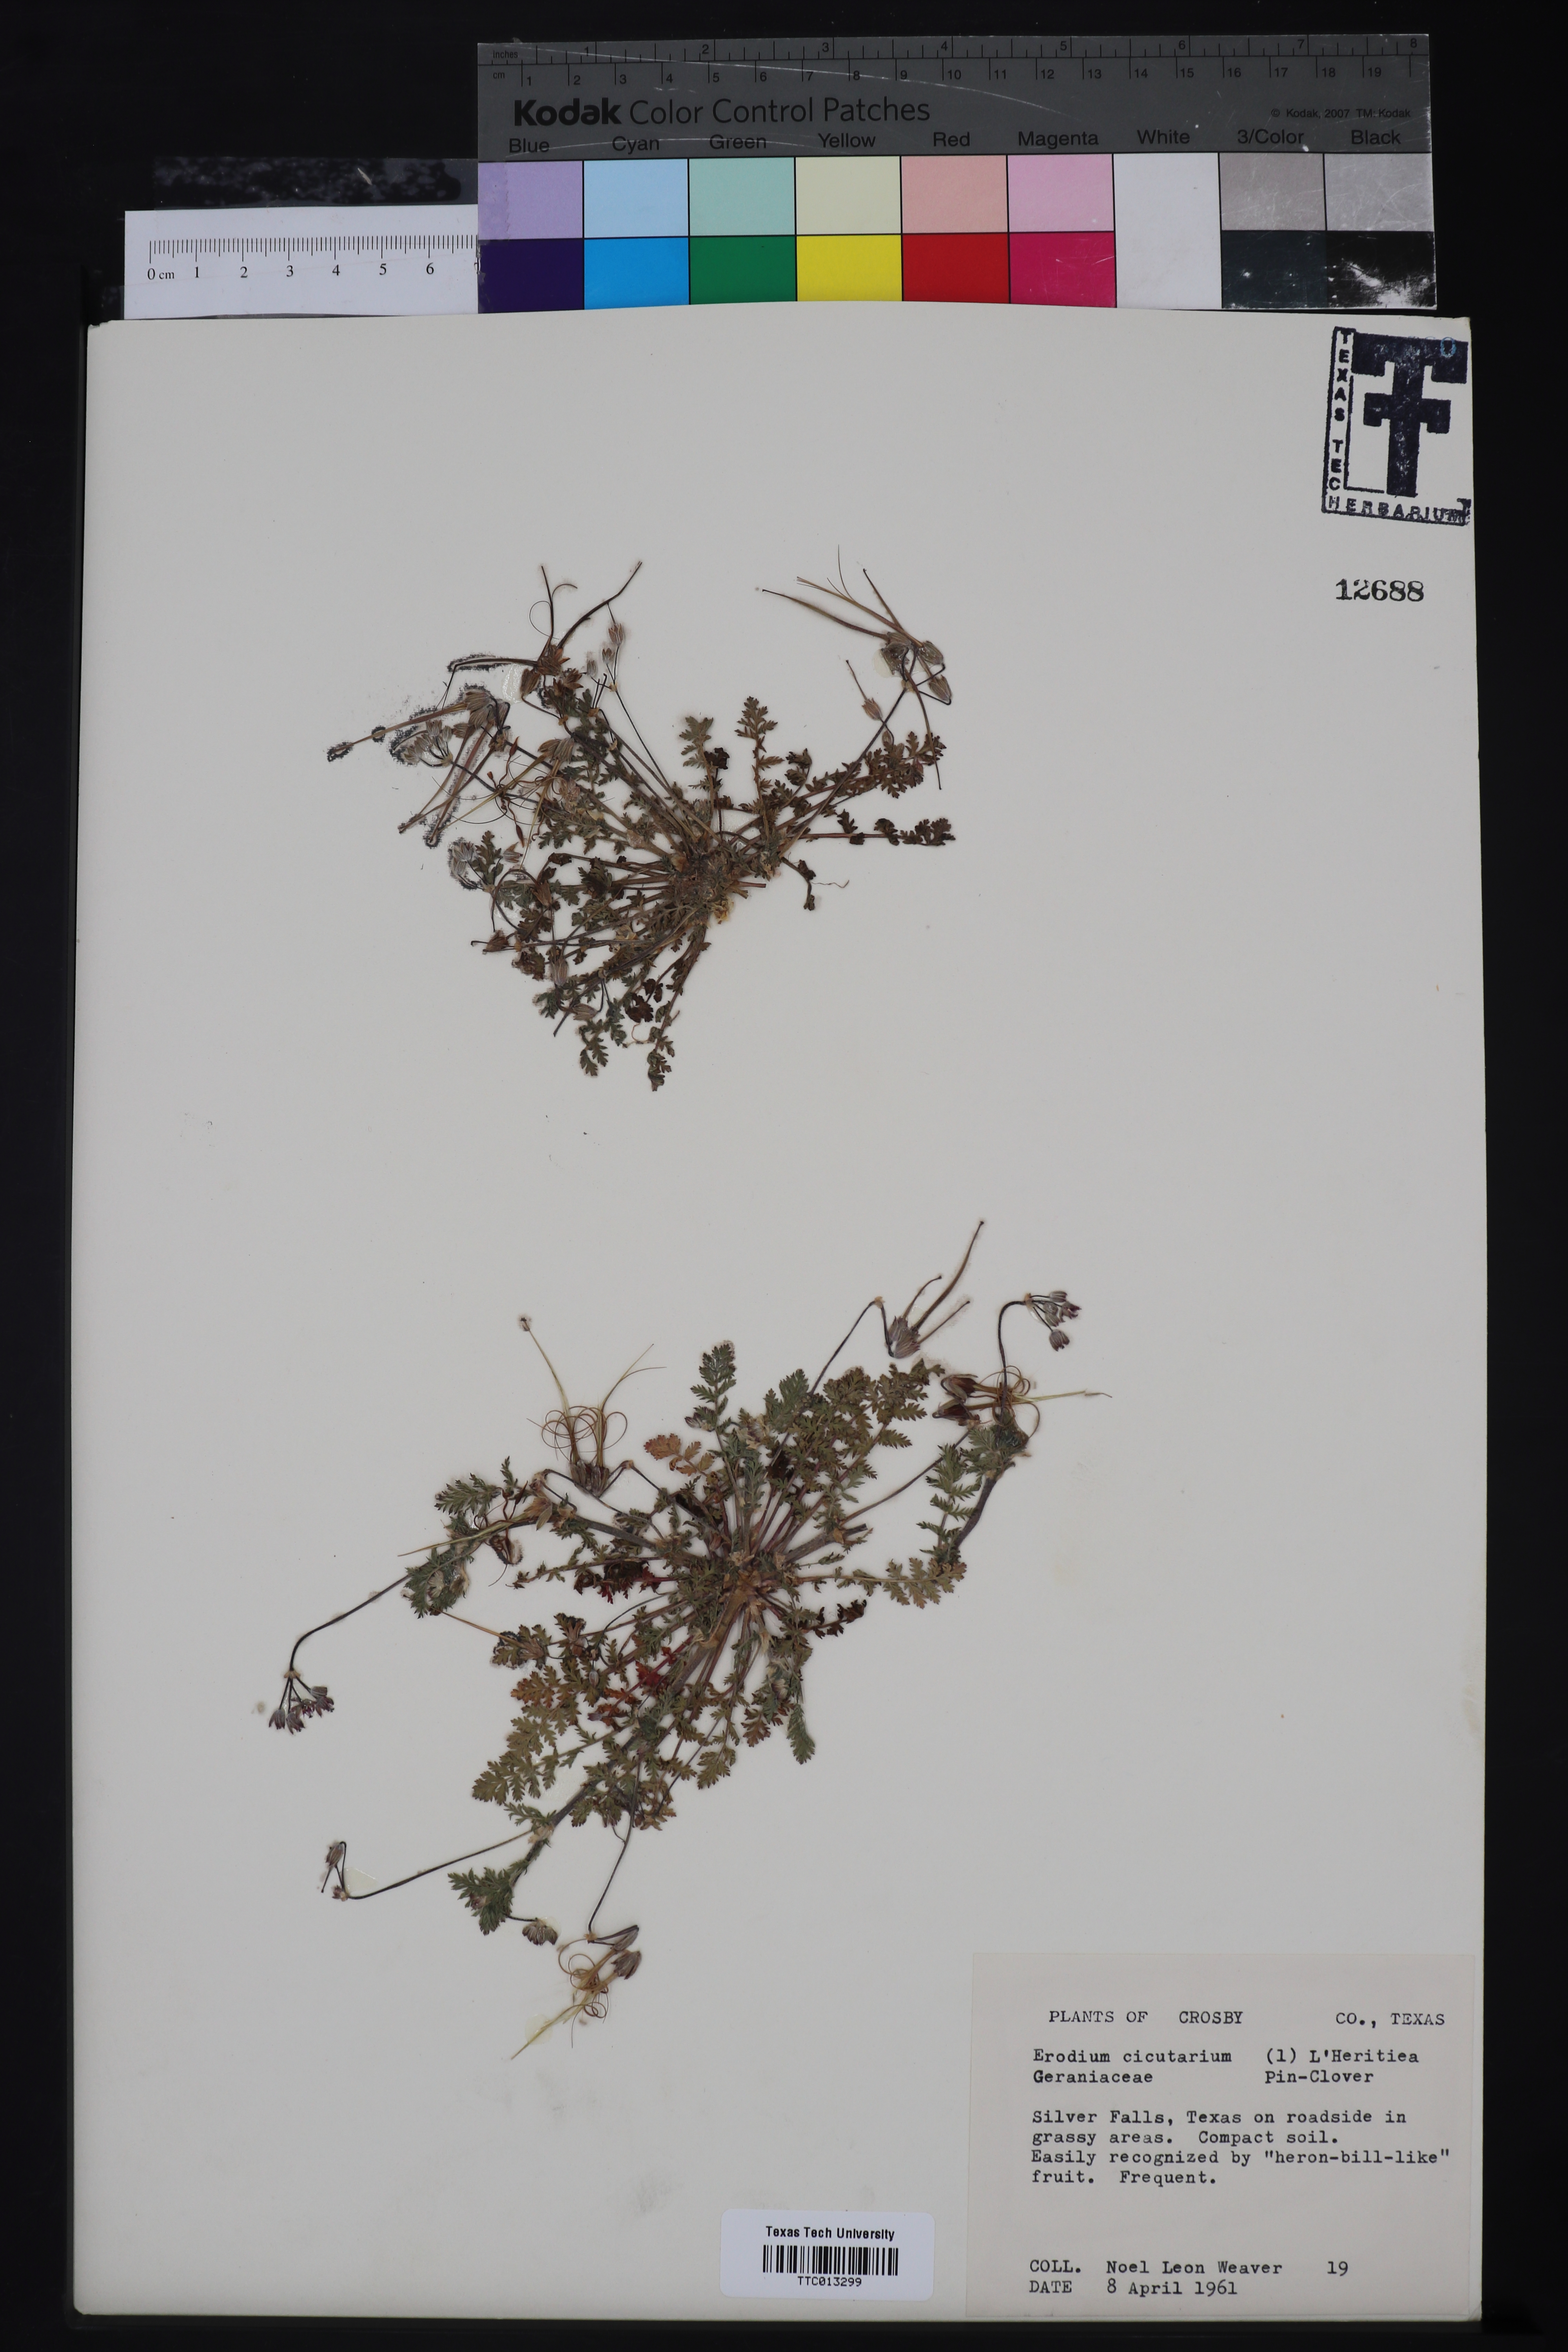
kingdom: Plantae
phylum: Tracheophyta
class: Magnoliopsida
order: Geraniales
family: Geraniaceae
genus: Erodium
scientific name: Erodium cicutarium
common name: Common stork's-bill
